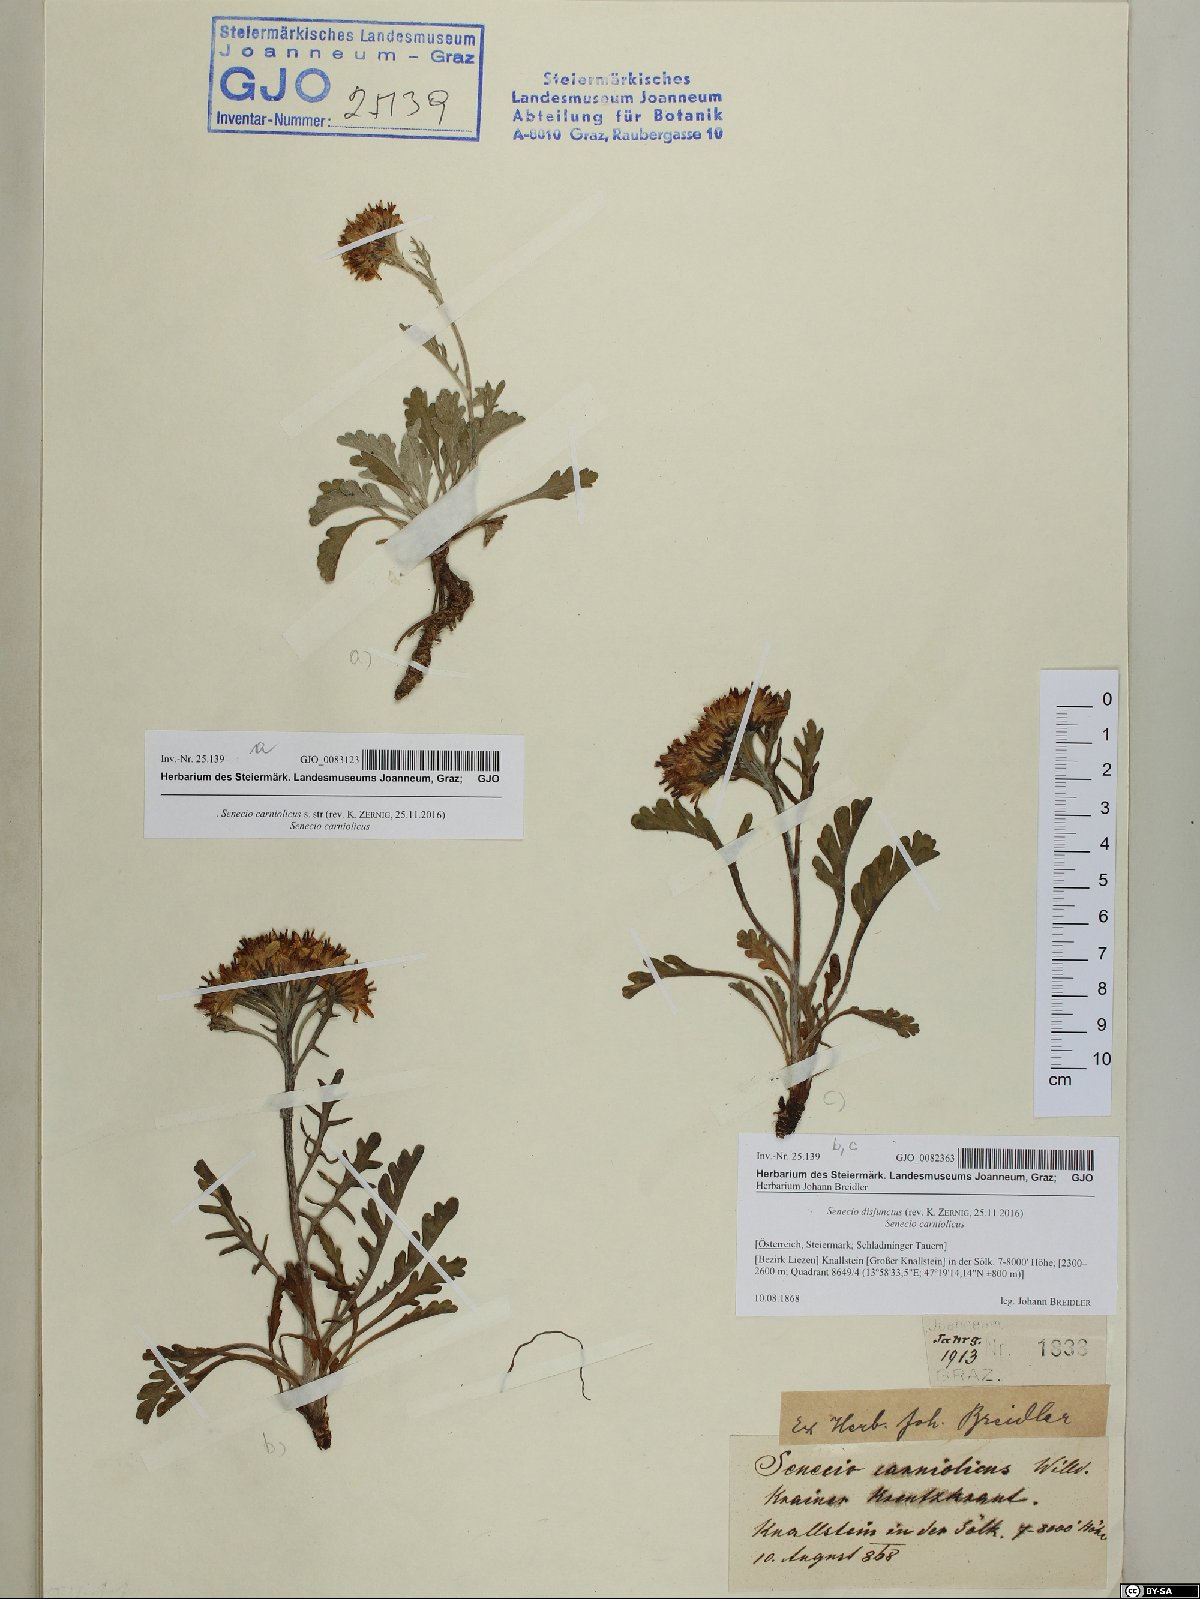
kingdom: Plantae
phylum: Tracheophyta
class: Magnoliopsida
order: Asterales
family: Asteraceae
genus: Jacobaea
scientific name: Jacobaea disjuncta
